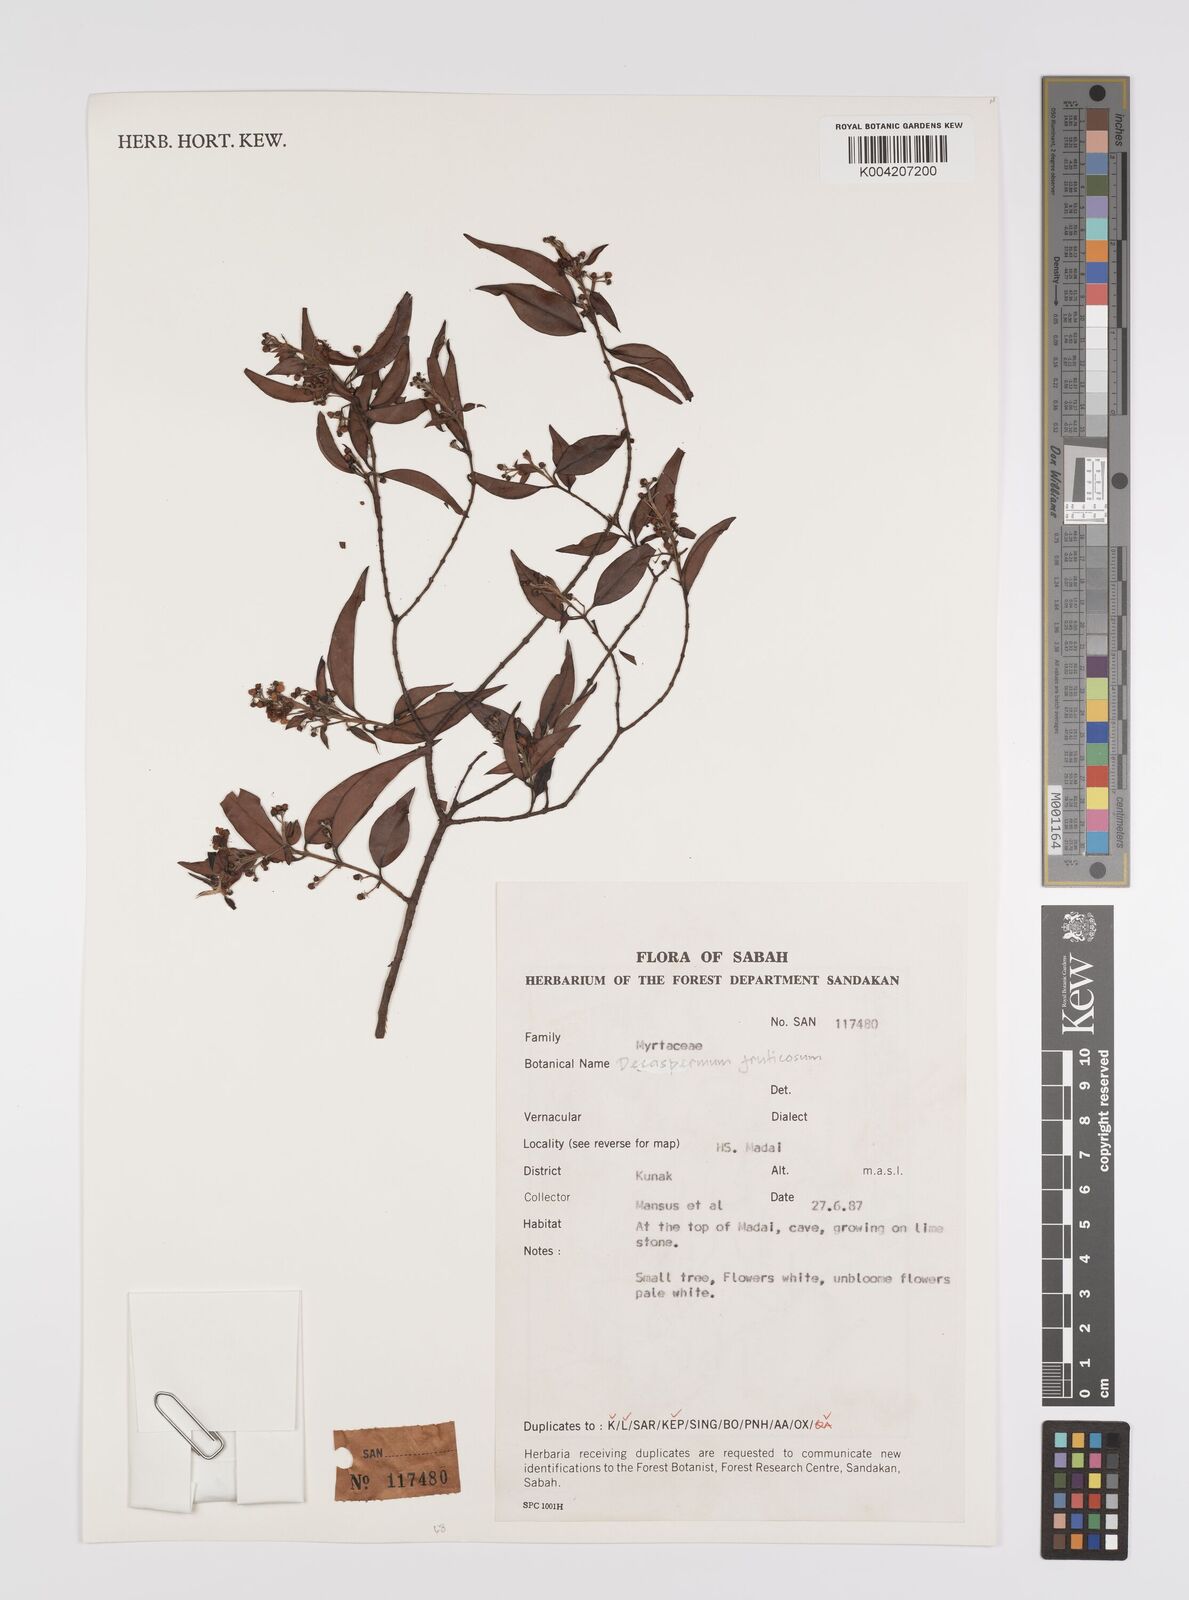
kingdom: Plantae
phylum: Tracheophyta
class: Magnoliopsida
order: Myrtales
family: Myrtaceae
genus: Decaspermum
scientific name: Decaspermum parviflorum
